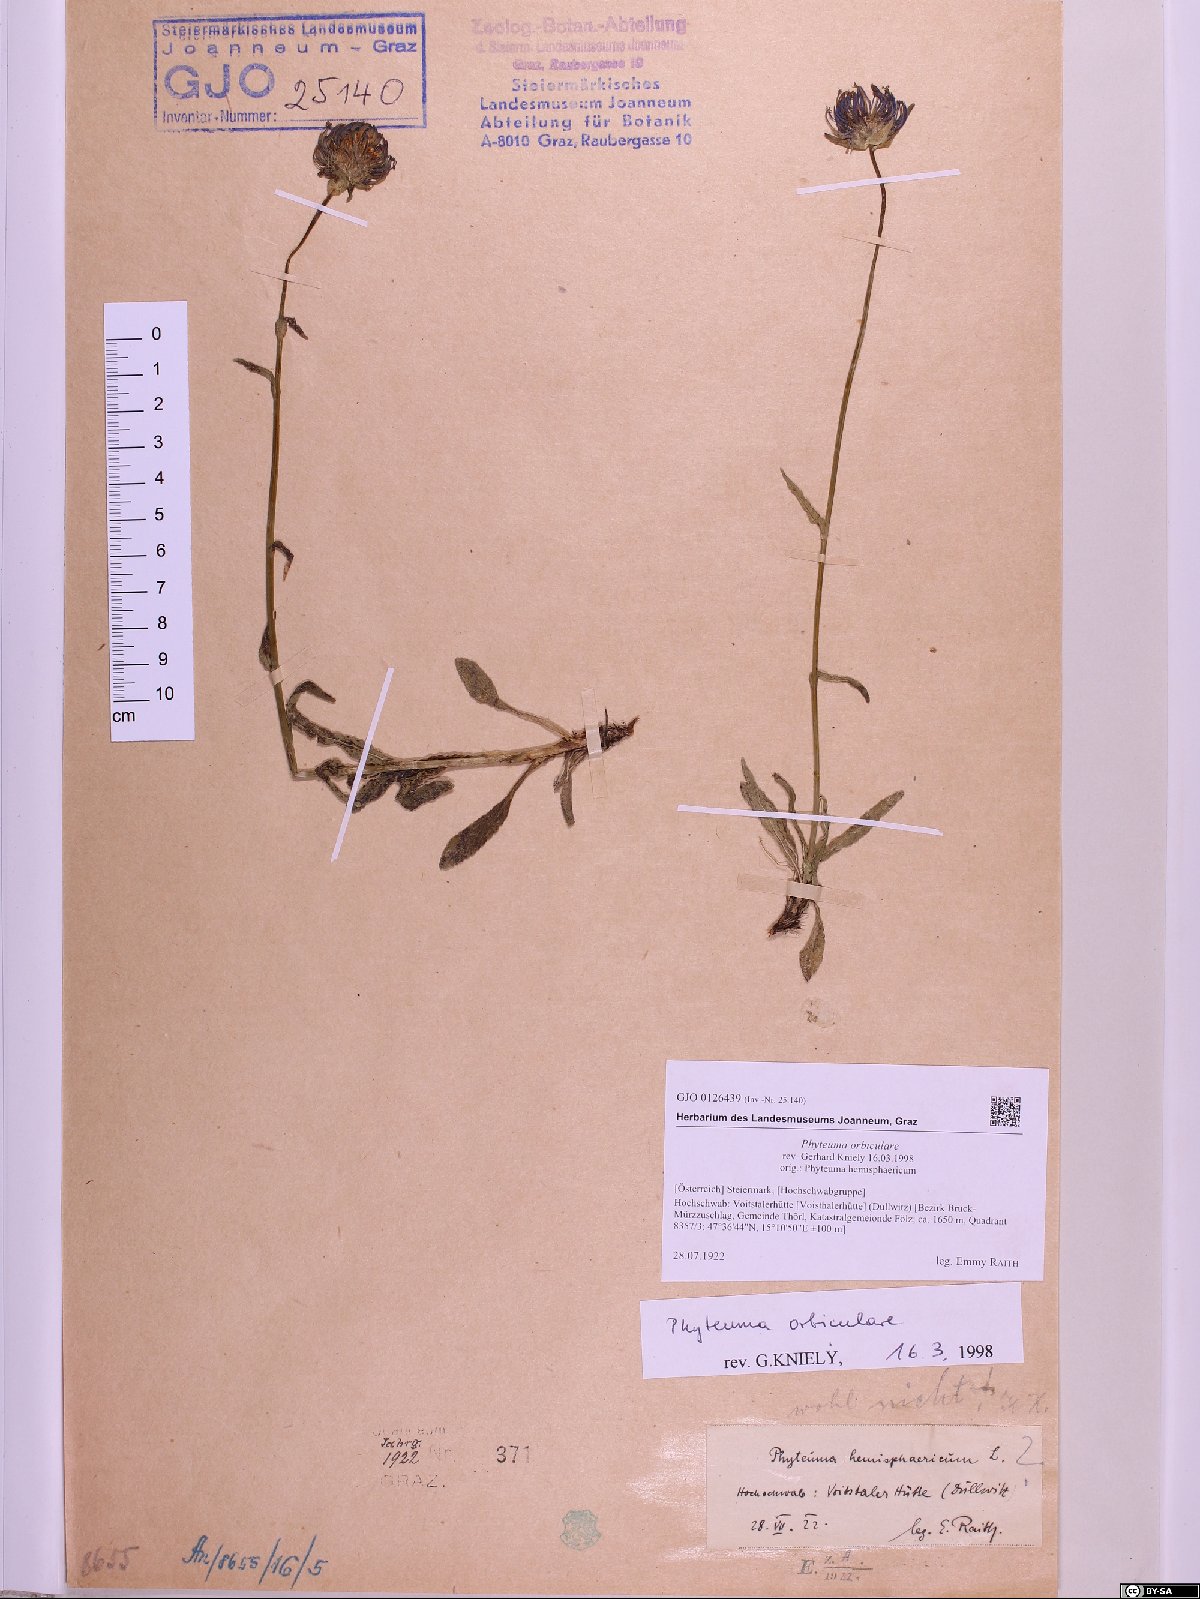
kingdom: Plantae
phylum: Tracheophyta
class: Magnoliopsida
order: Asterales
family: Campanulaceae
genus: Phyteuma
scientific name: Phyteuma orbiculare
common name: Round-headed rampion
